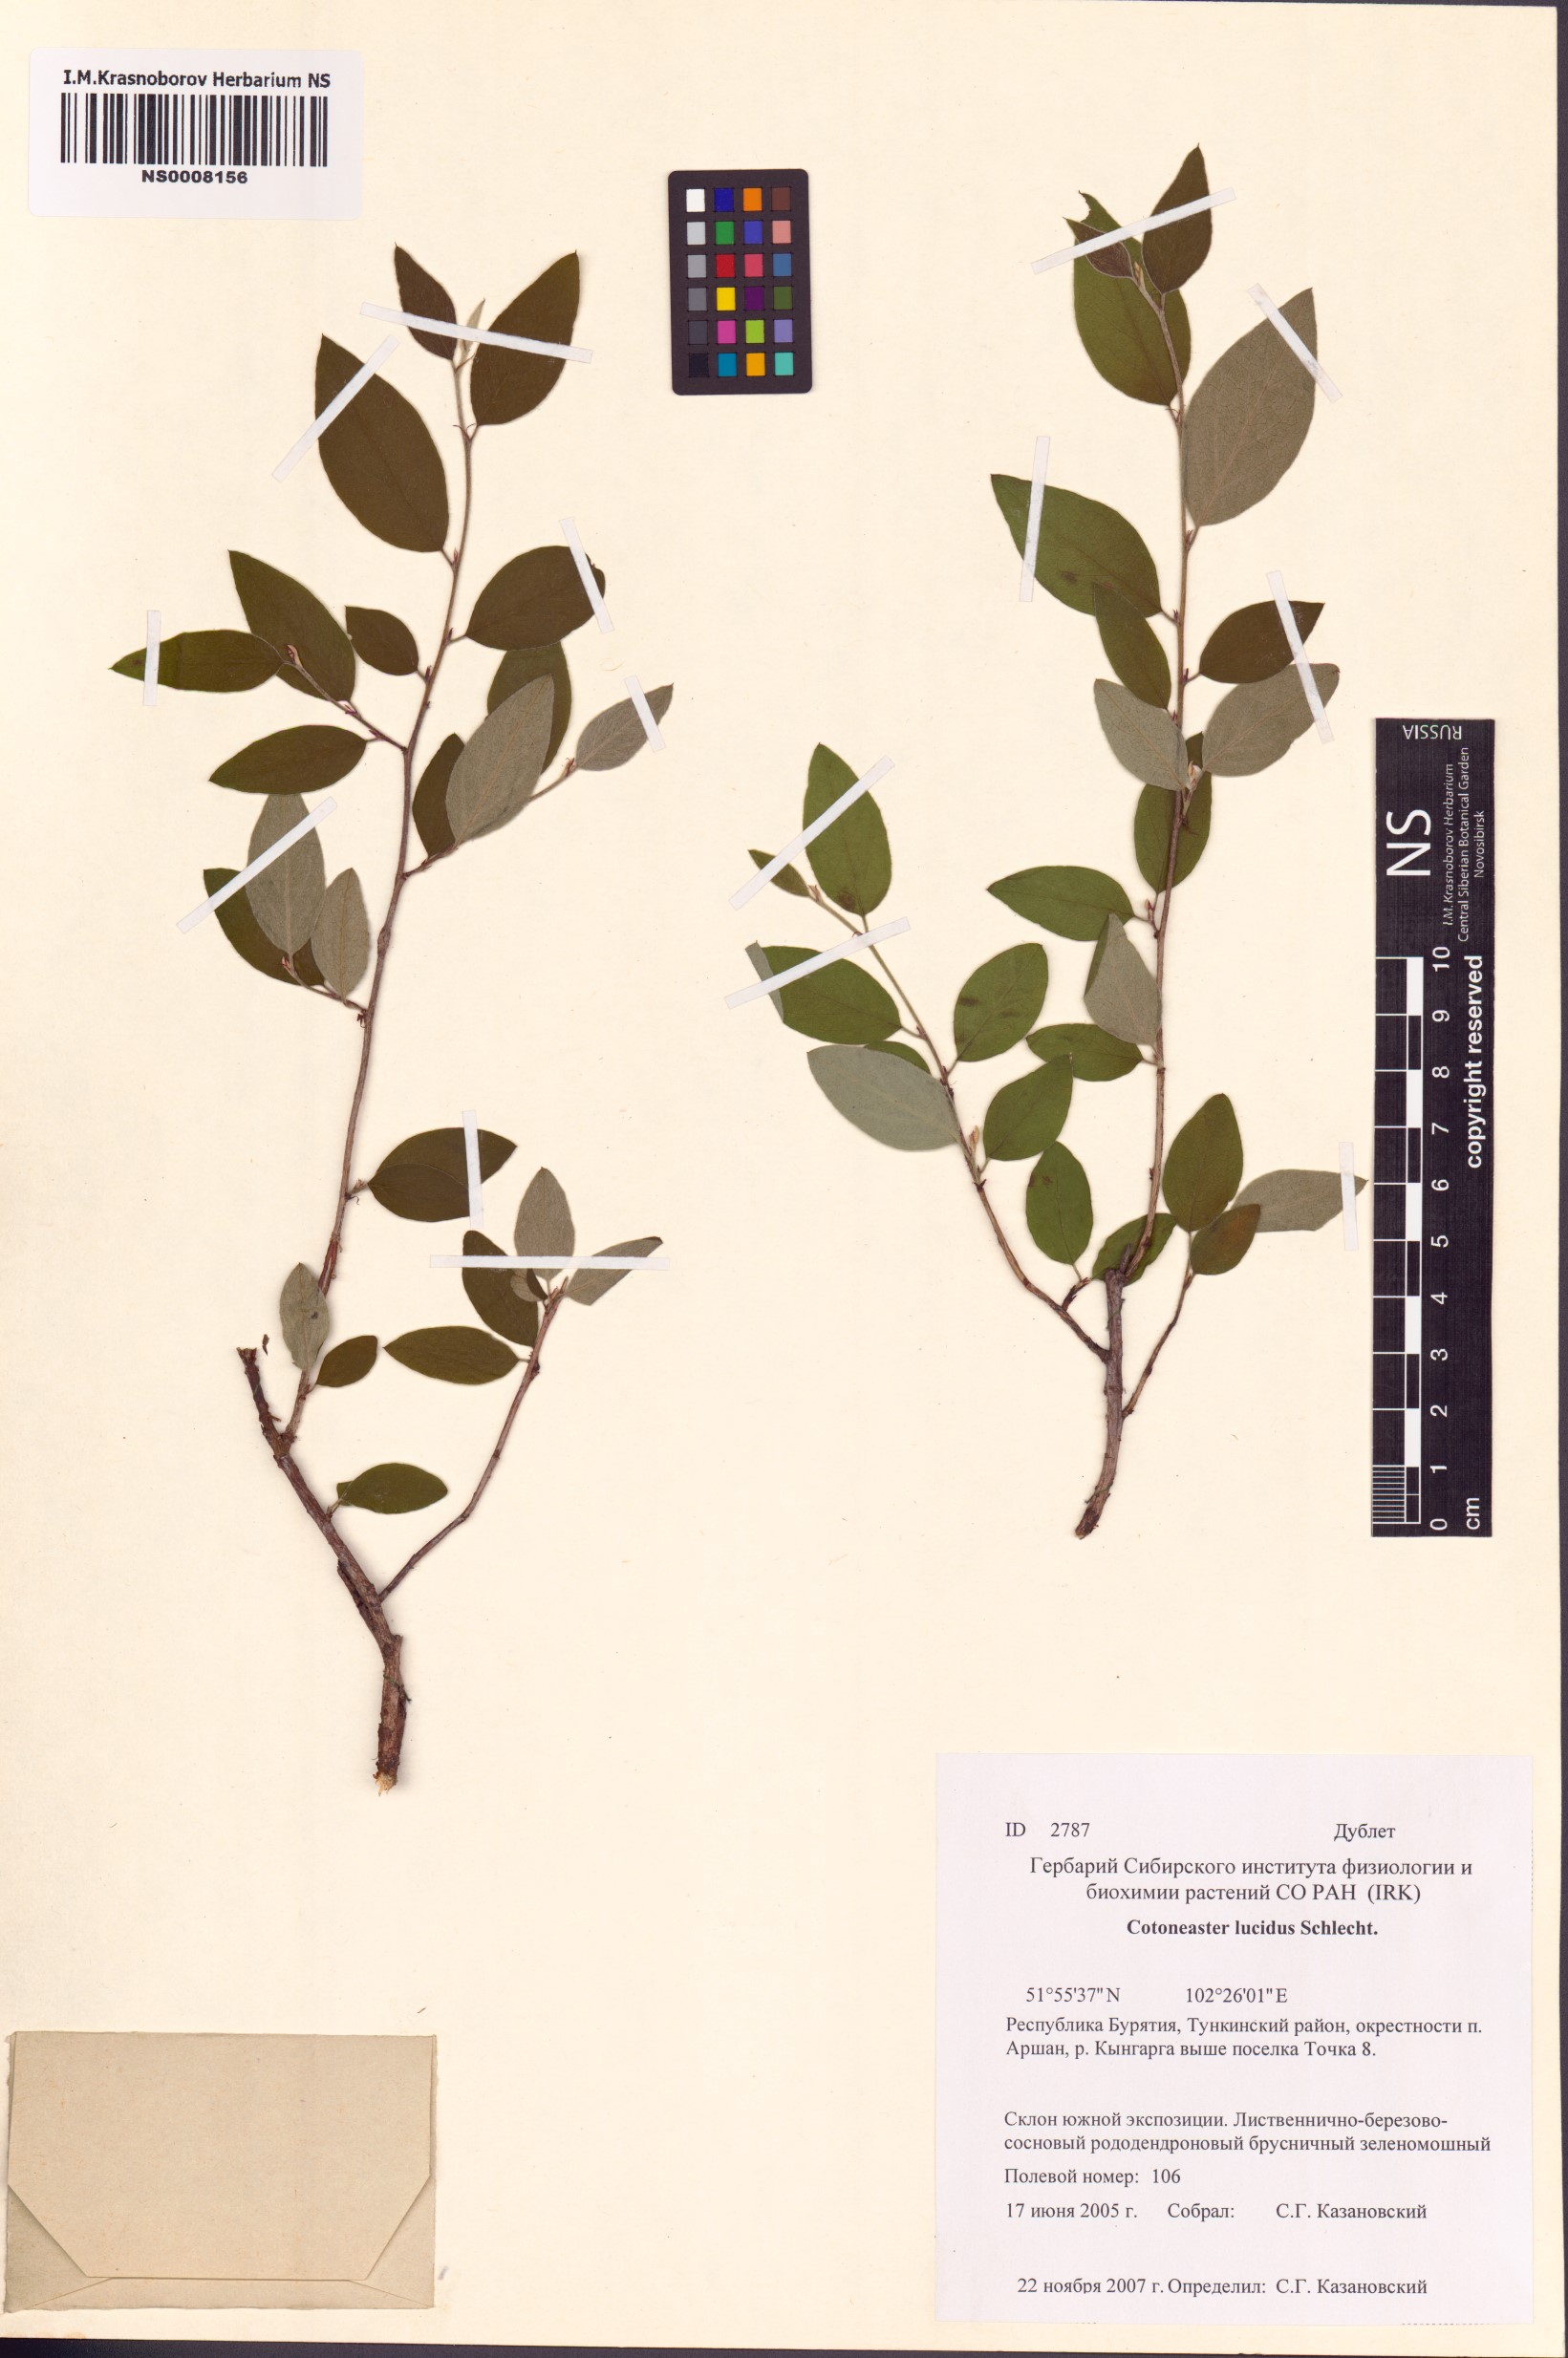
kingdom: Plantae
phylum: Tracheophyta
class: Magnoliopsida
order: Rosales
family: Rosaceae
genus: Cotoneaster
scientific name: Cotoneaster acutifolius
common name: Peking cotoneaster
